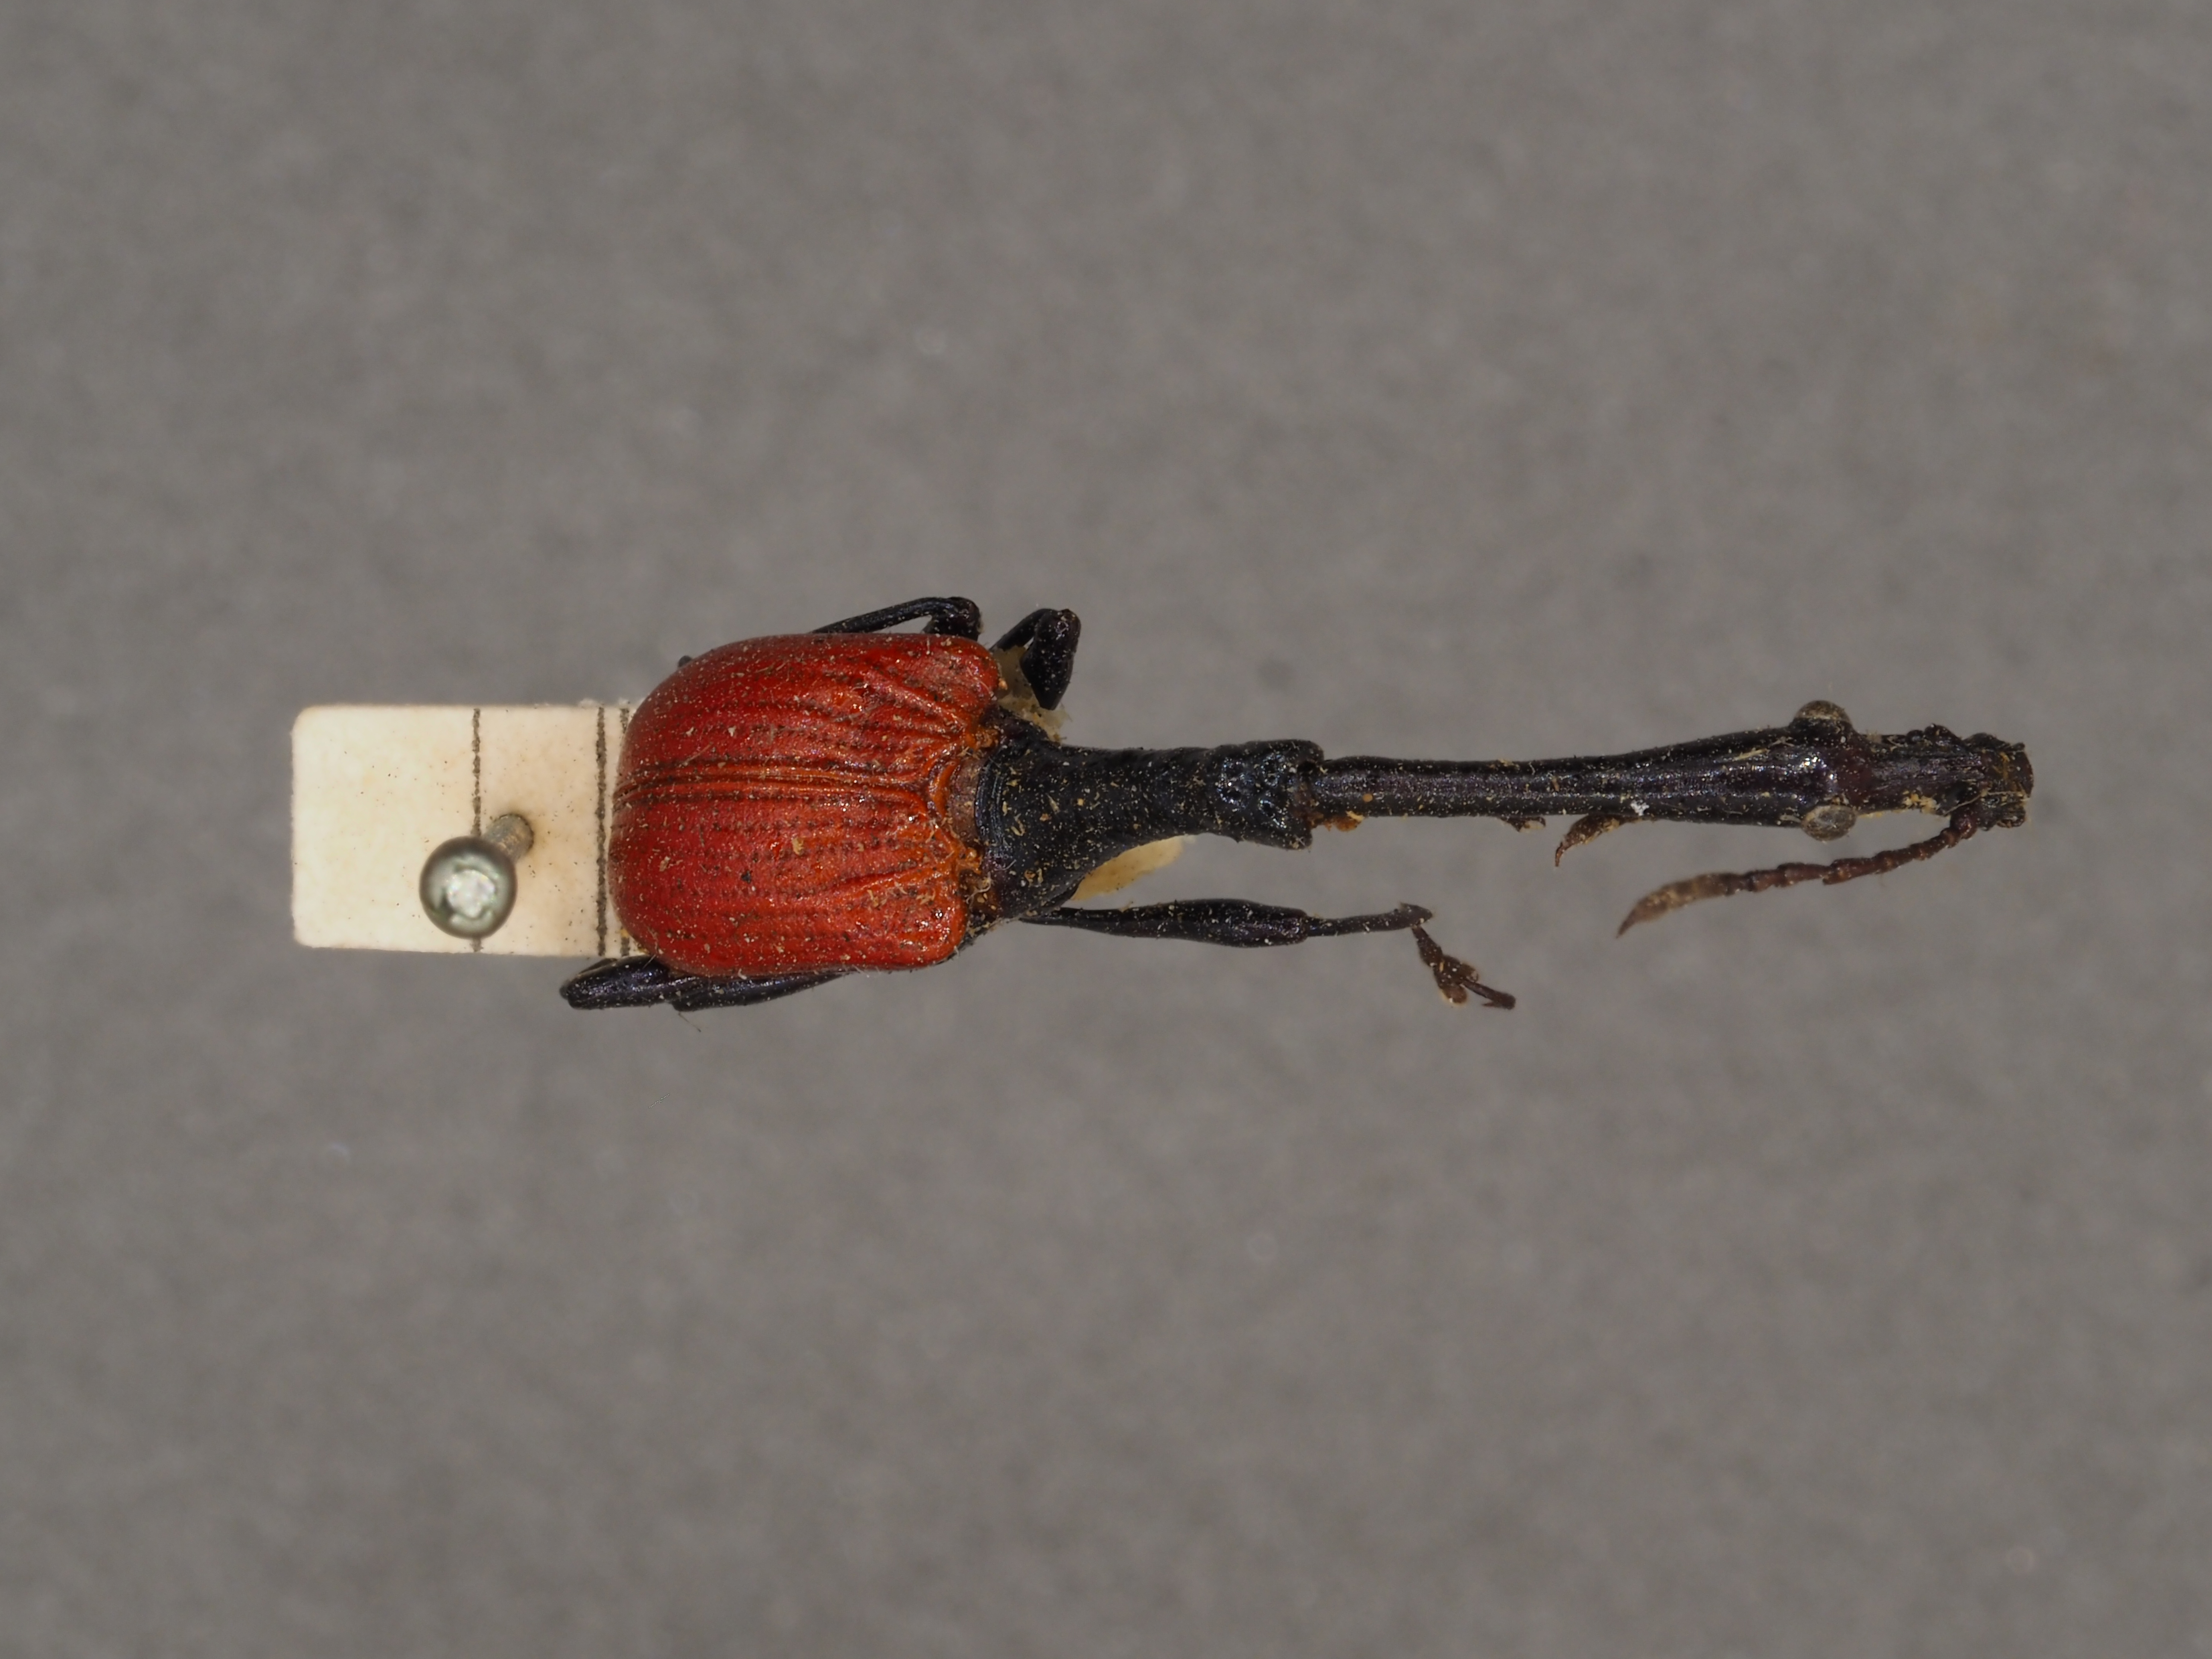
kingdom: Animalia
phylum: Arthropoda
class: Insecta
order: Coleoptera
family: Attelabidae
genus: Trachelophorus
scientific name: Trachelophorus giraffa
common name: Giraffe weevil
